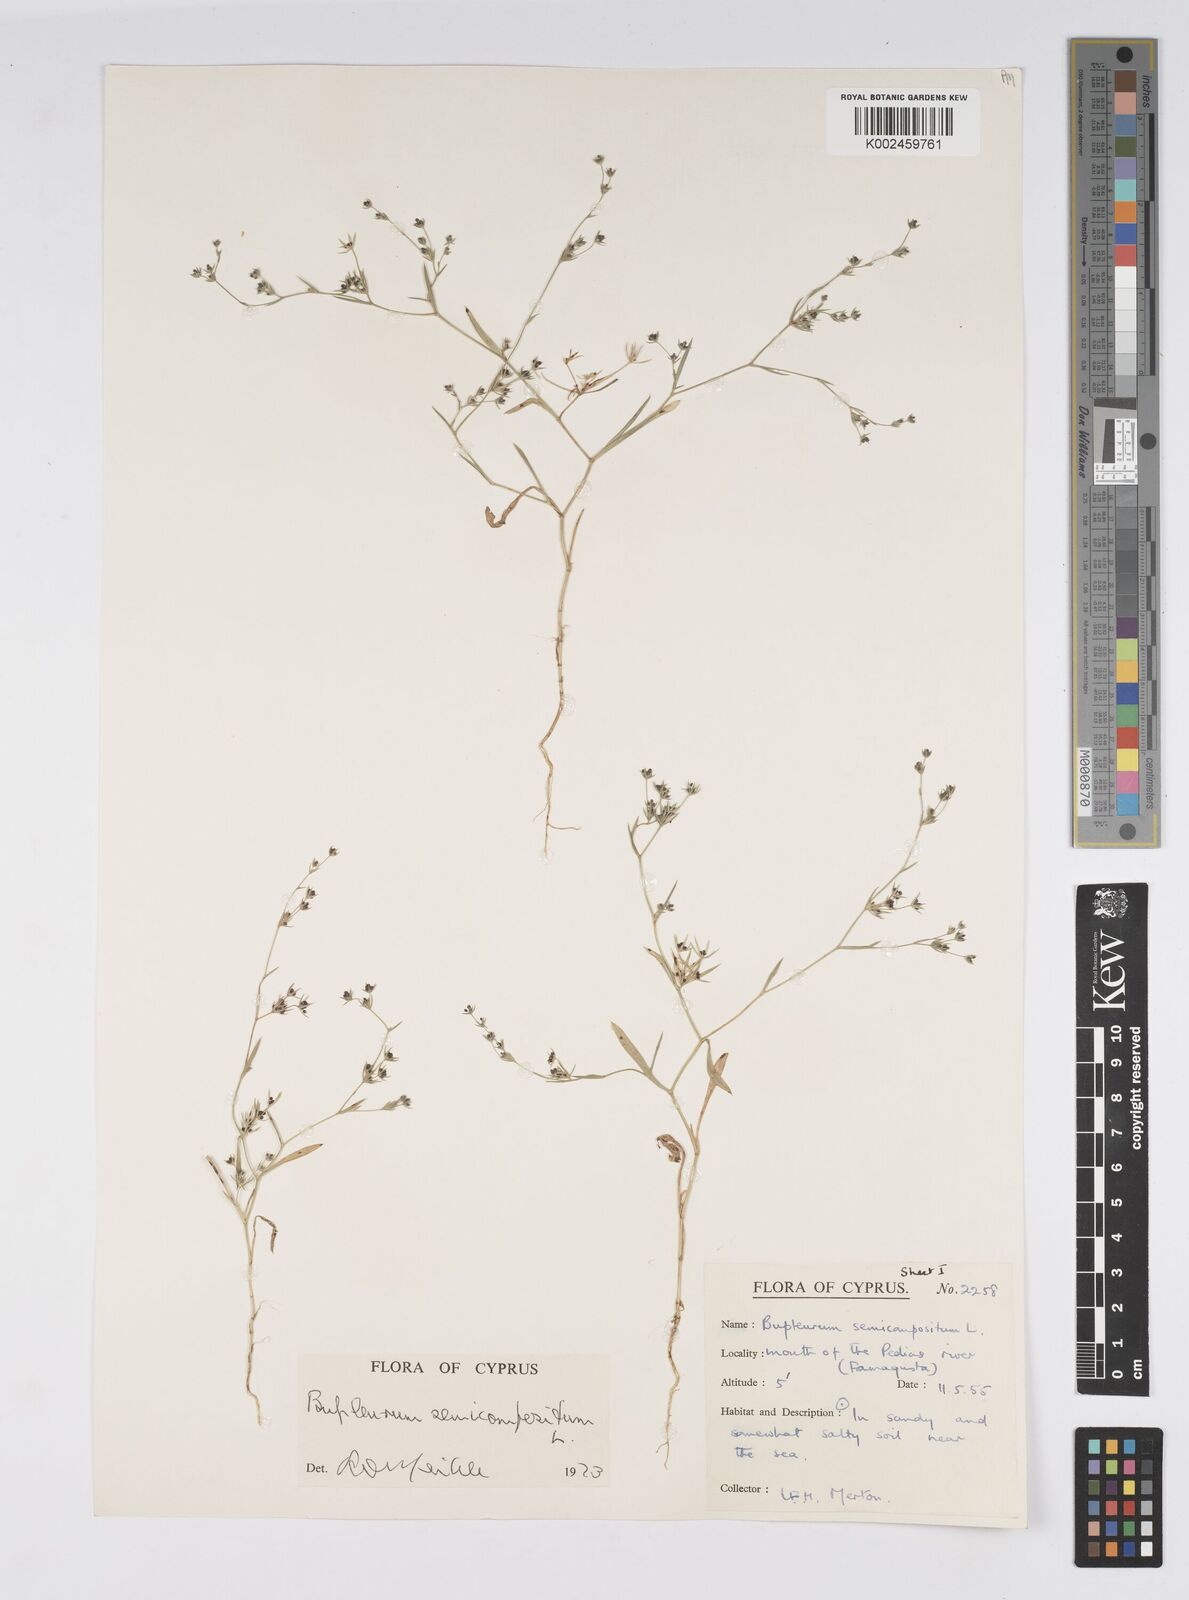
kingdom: Plantae
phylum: Tracheophyta
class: Magnoliopsida
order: Apiales
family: Apiaceae
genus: Bupleurum
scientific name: Bupleurum semicompositum
